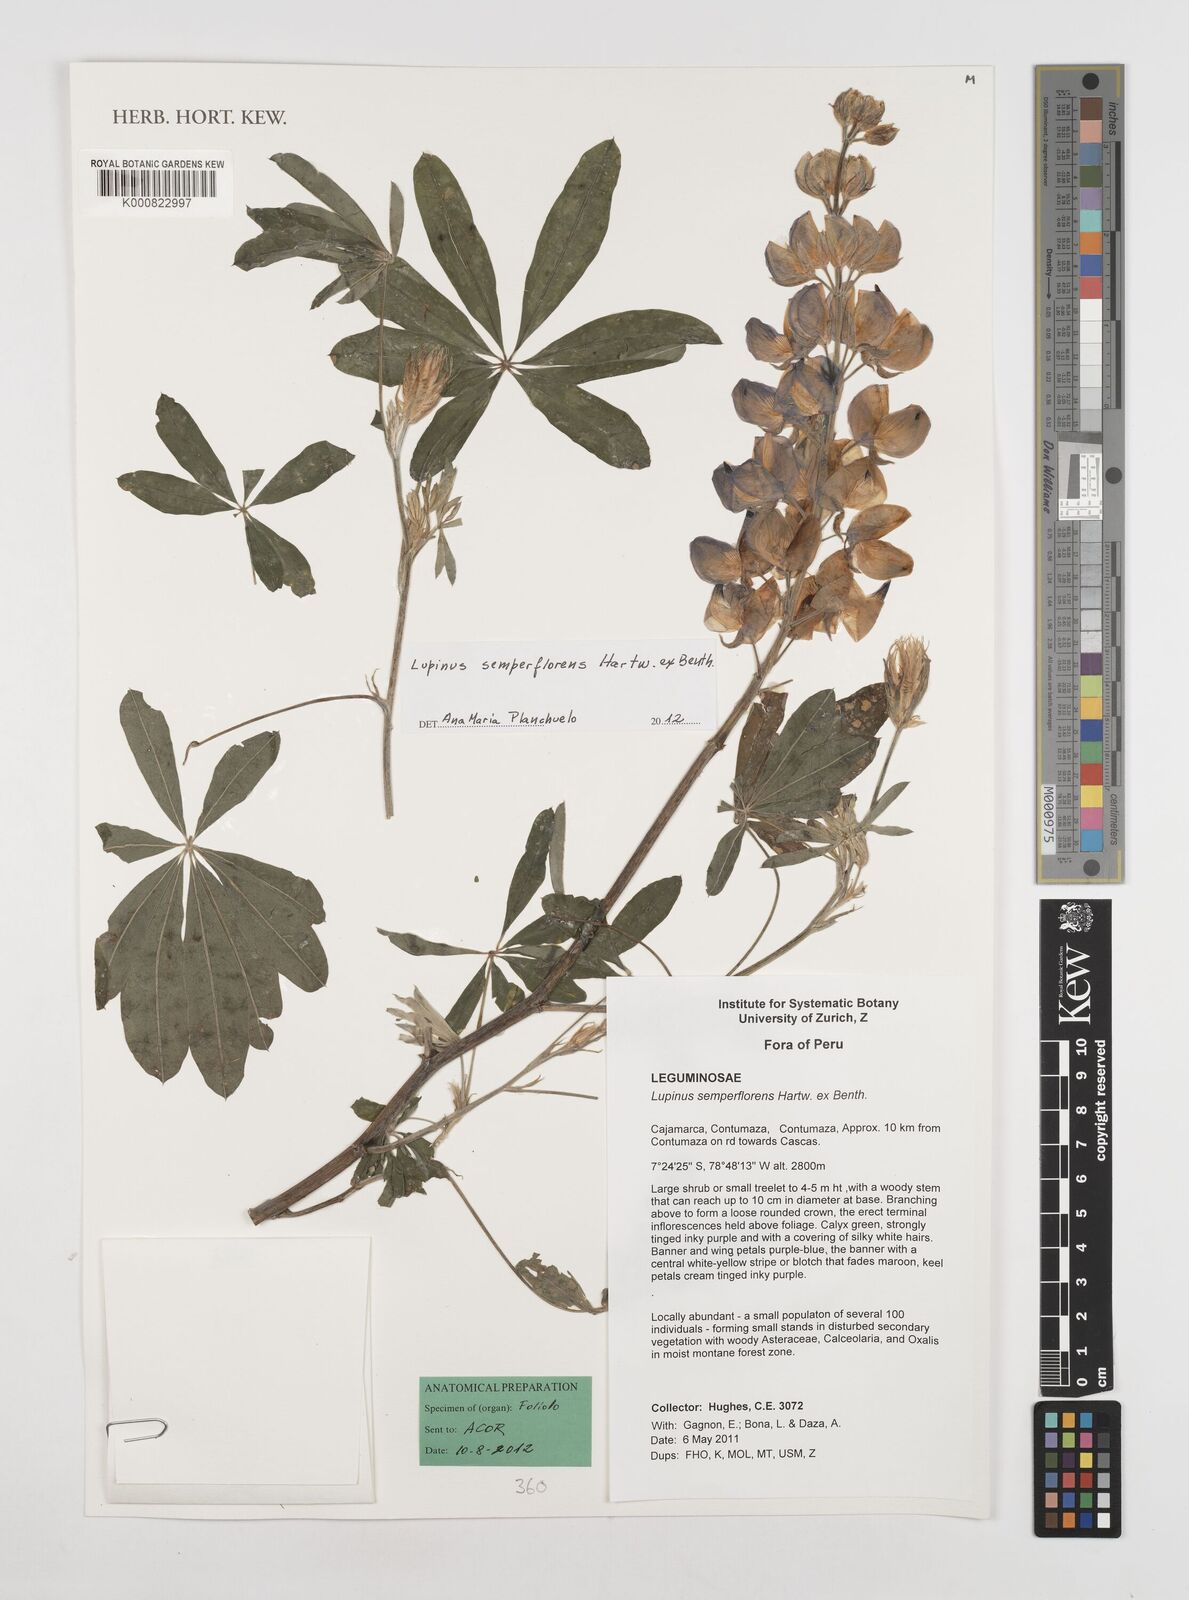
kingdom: Plantae
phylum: Tracheophyta
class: Magnoliopsida
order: Fabales
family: Fabaceae
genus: Lupinus
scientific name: Lupinus semperflorens
